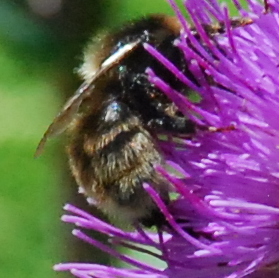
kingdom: Animalia
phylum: Arthropoda
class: Insecta
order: Hymenoptera
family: Apidae
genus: Bombus
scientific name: Bombus subterraneus
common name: Short-haired humble-bee
